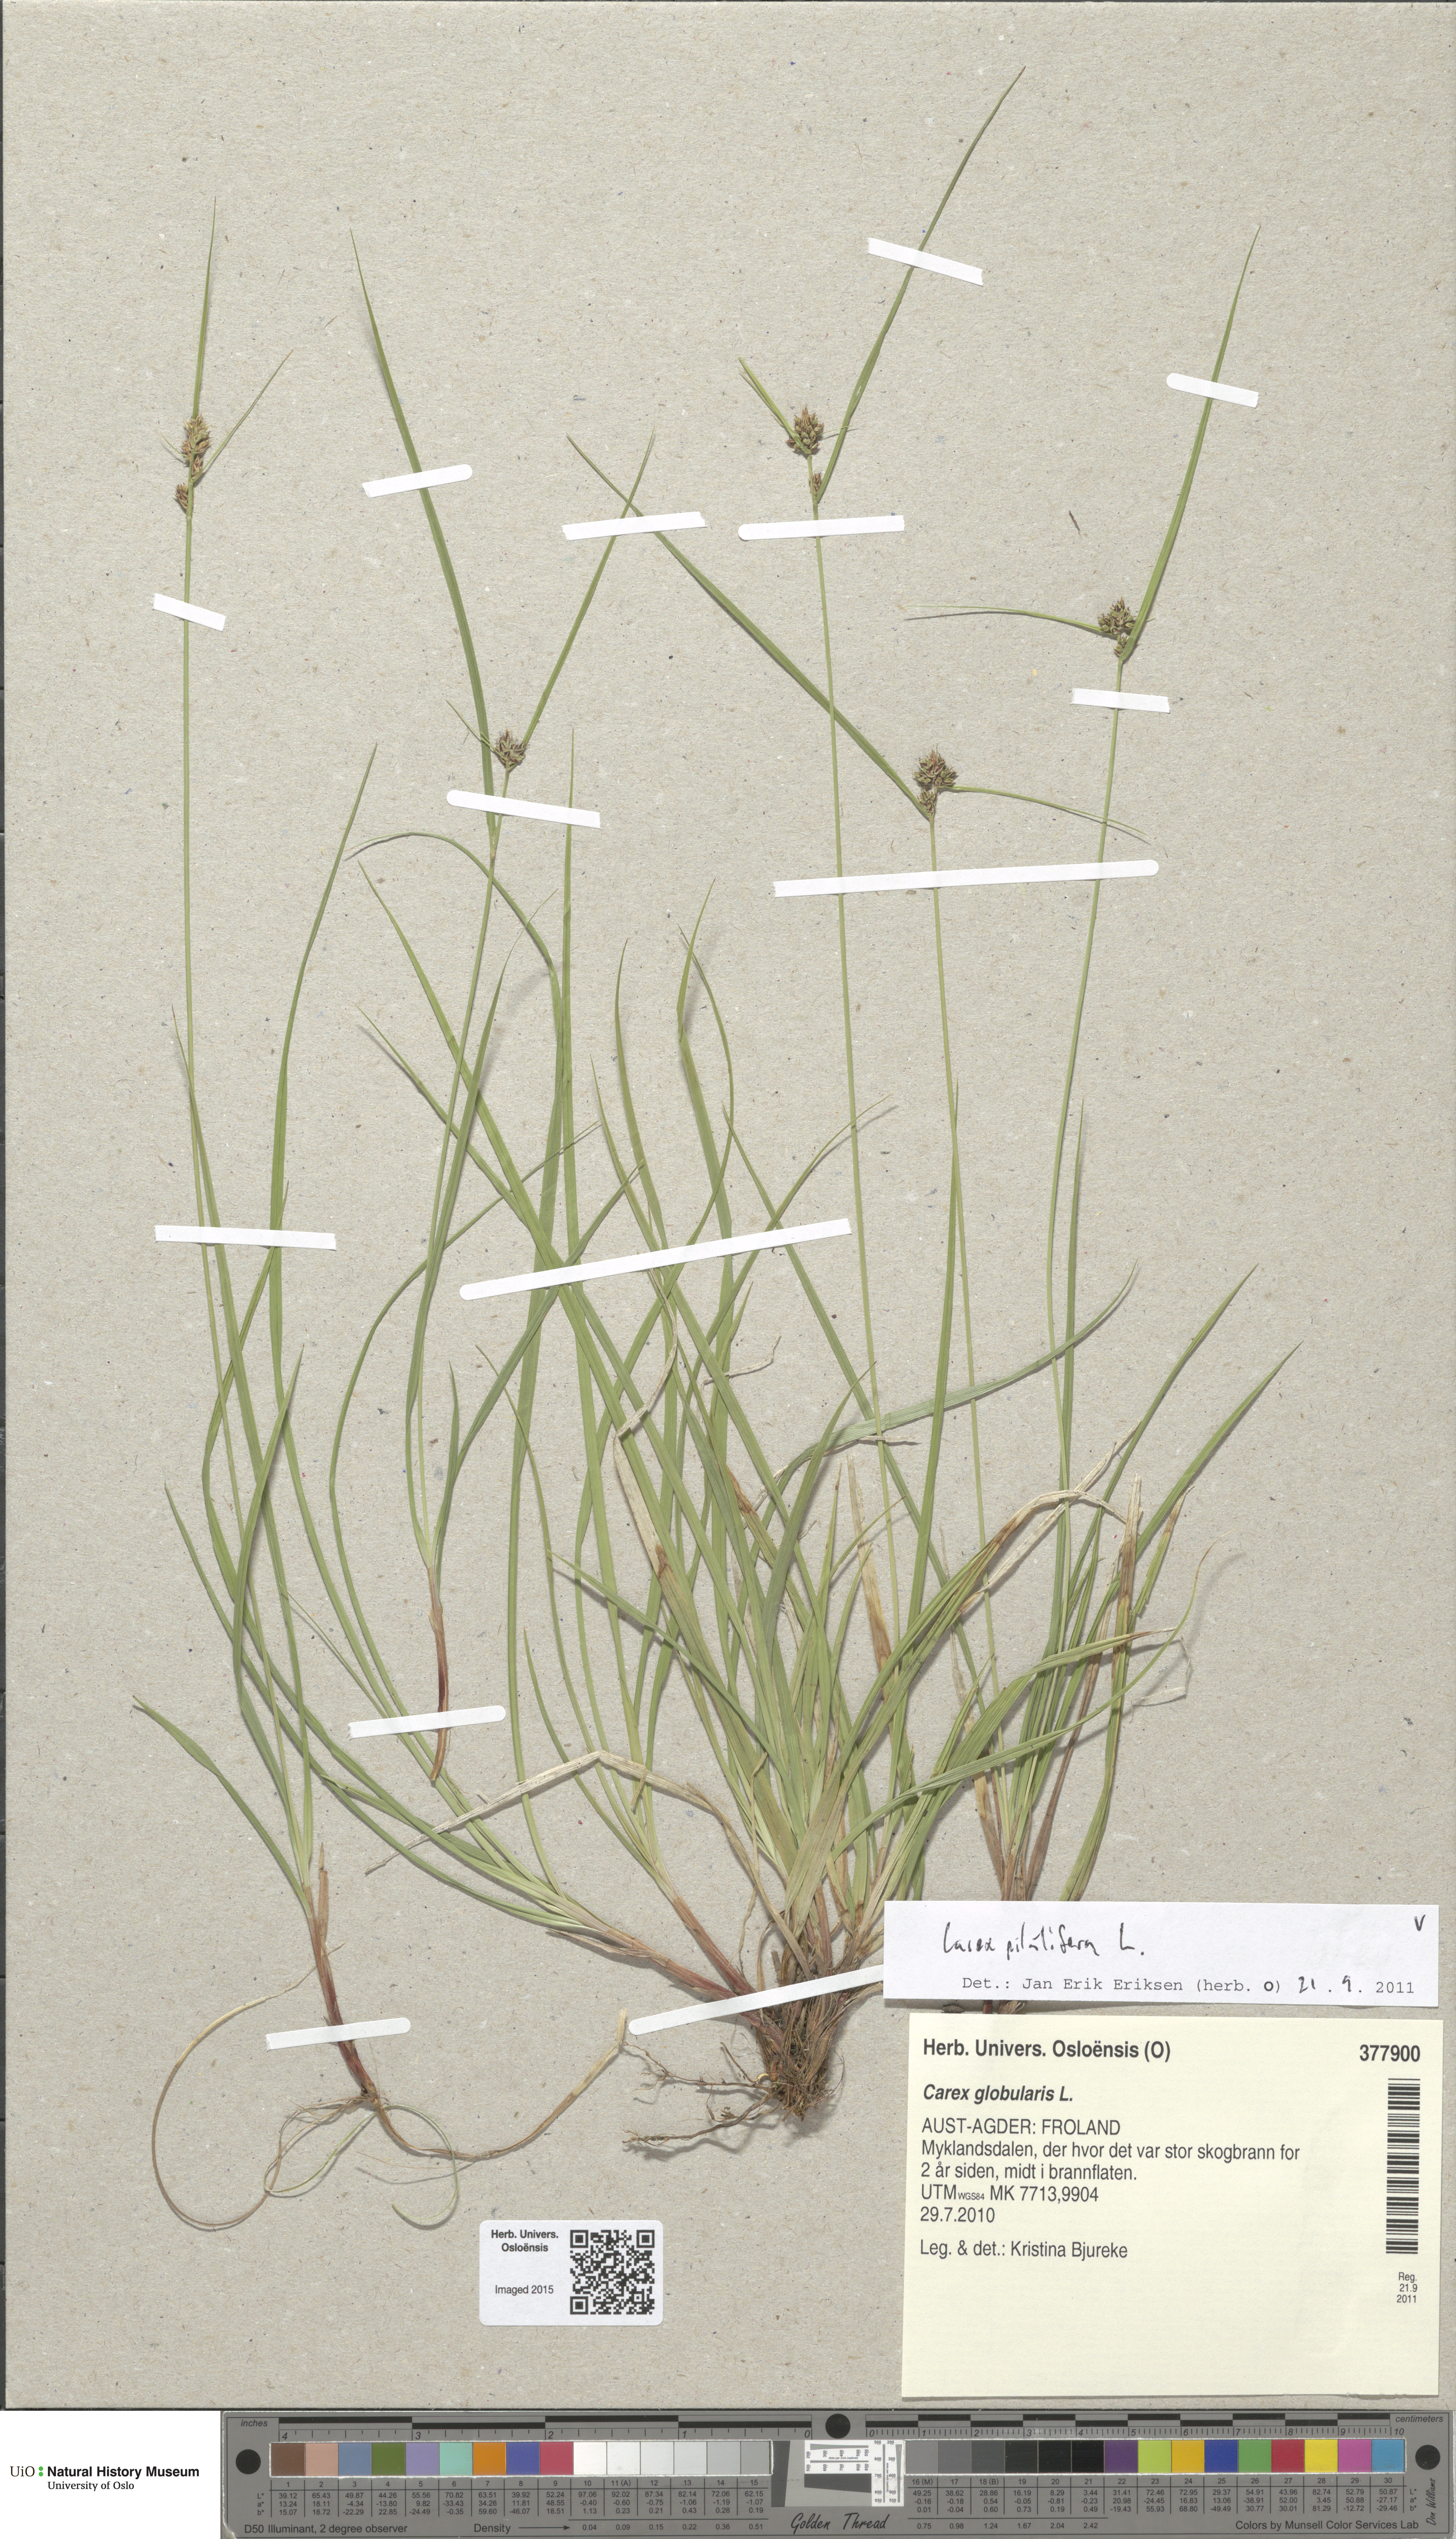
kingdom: Plantae
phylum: Tracheophyta
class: Liliopsida
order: Poales
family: Cyperaceae
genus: Carex
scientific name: Carex pilulifera
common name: Pill sedge
